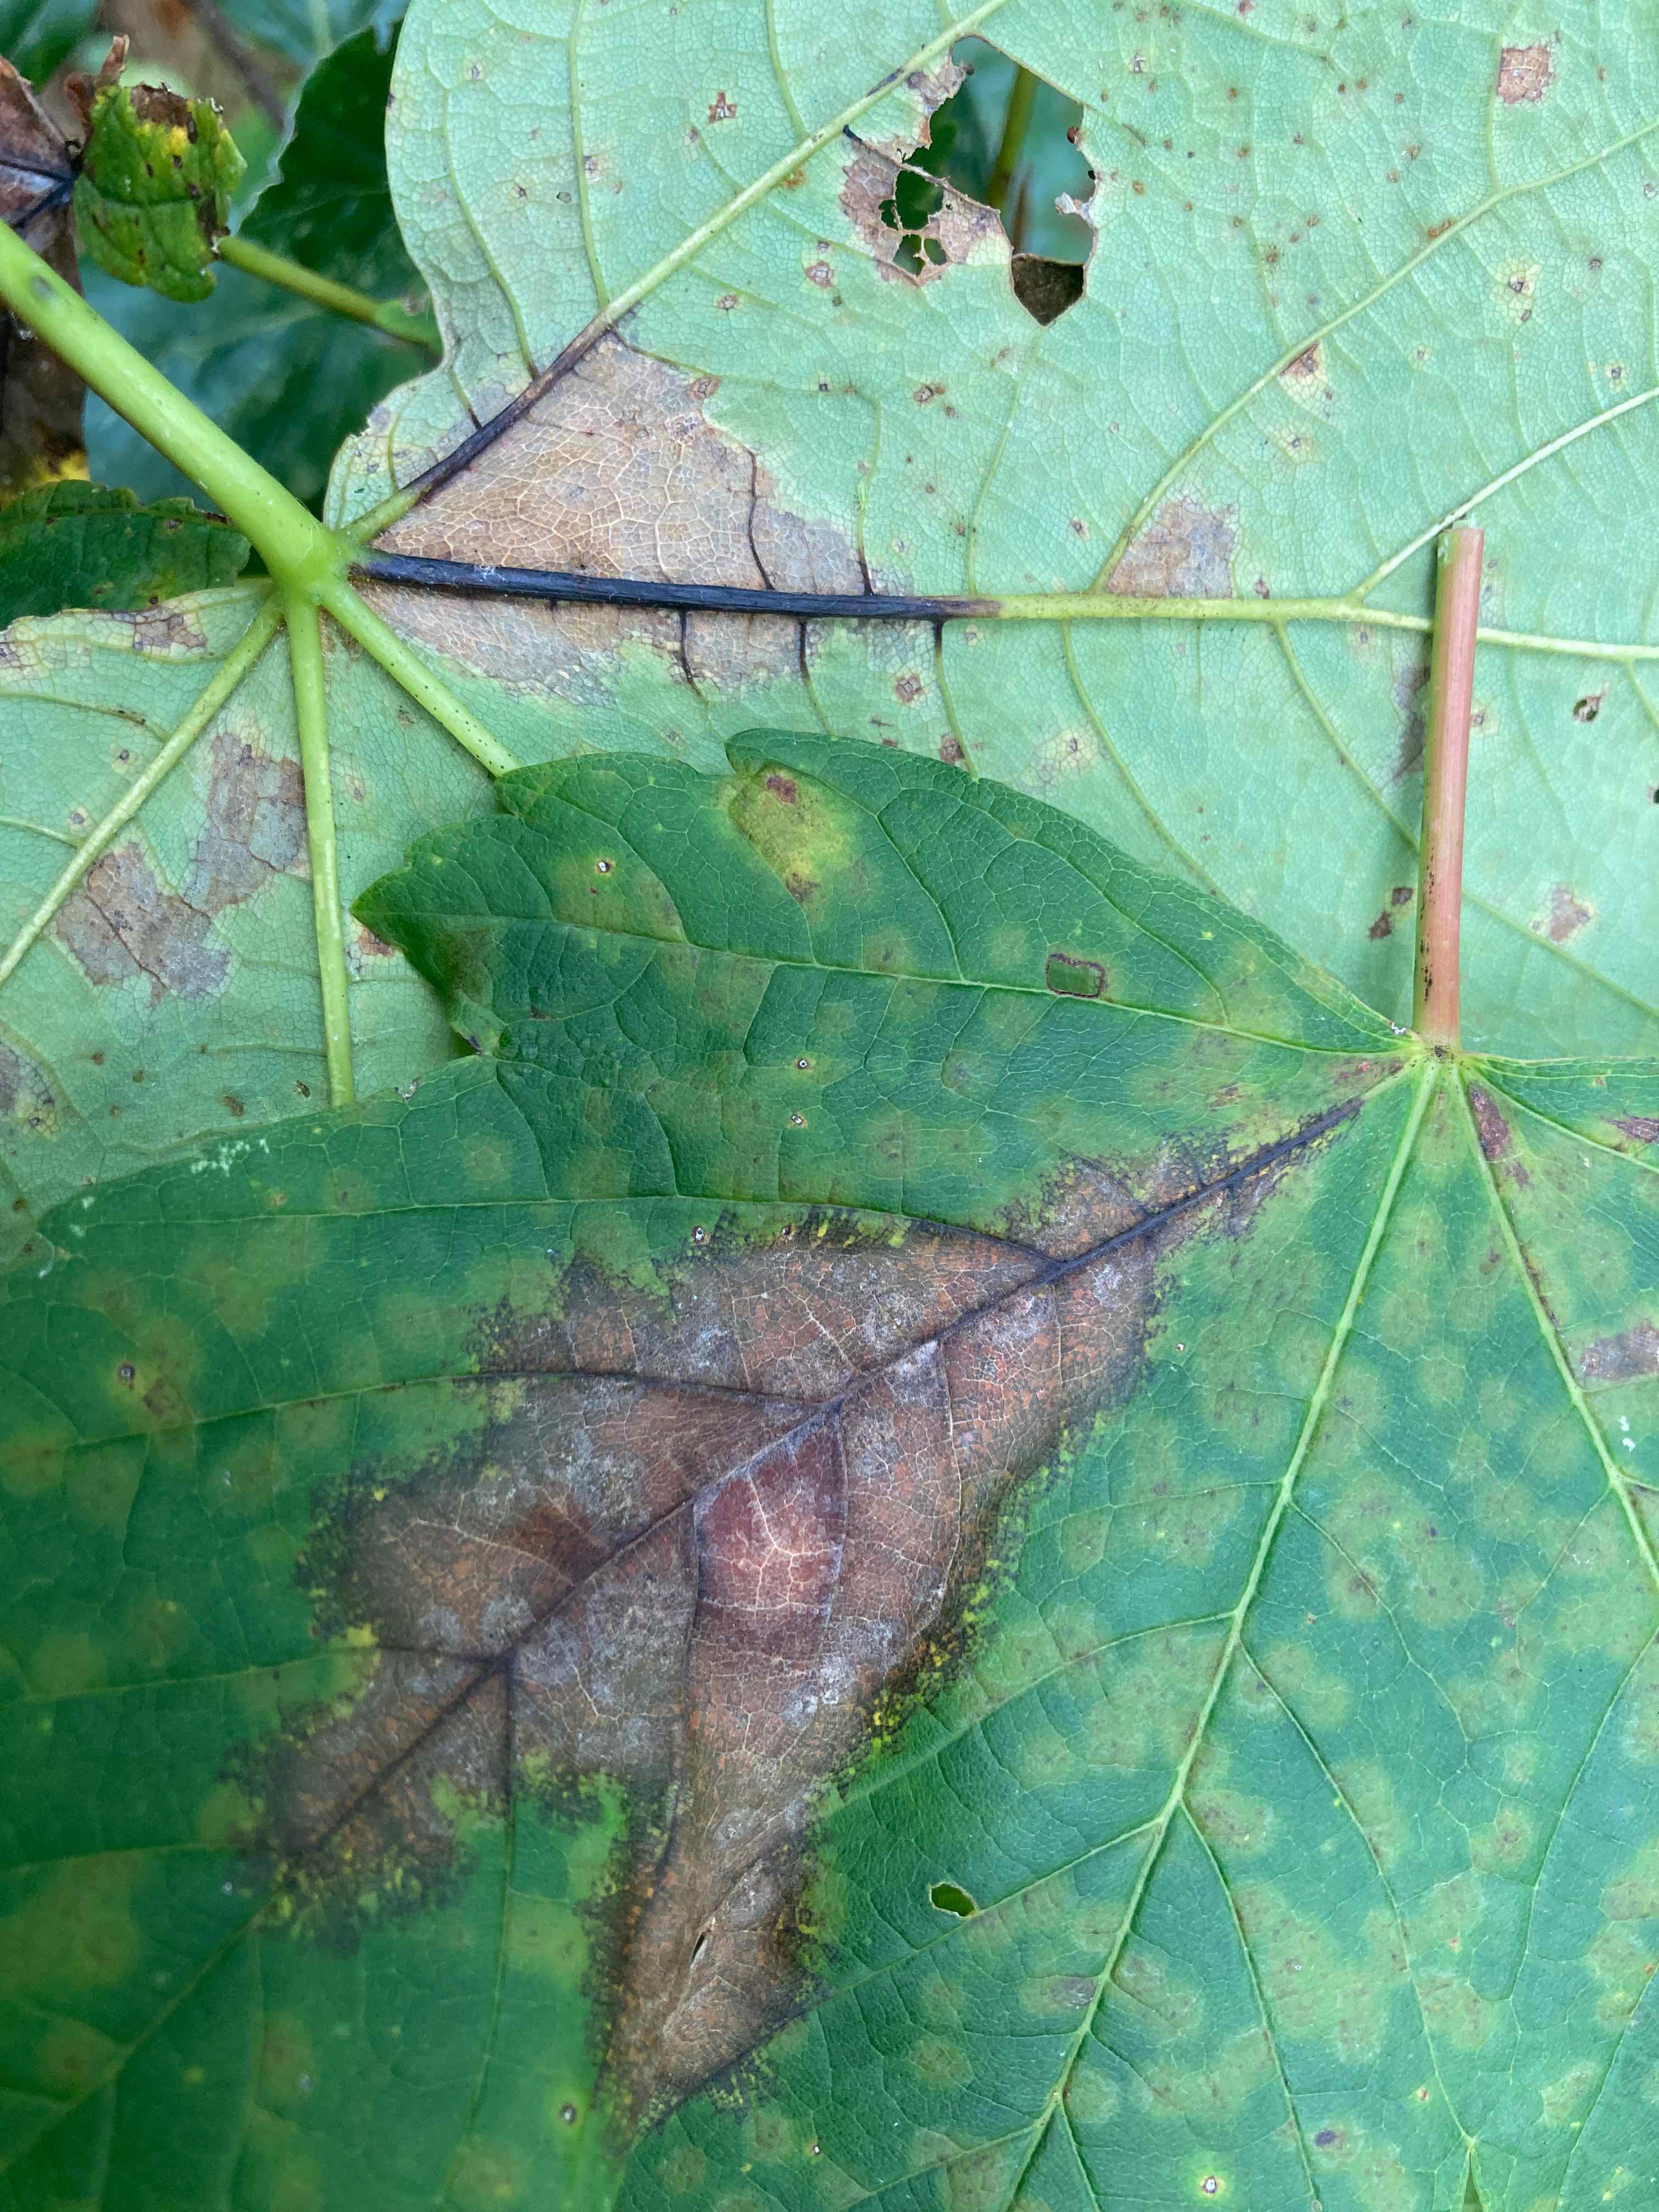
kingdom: Fungi
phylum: Ascomycota
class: Sordariomycetes
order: Diaporthales
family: Gnomoniaceae
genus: Pleuroceras
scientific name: Pleuroceras pseudoplatani
